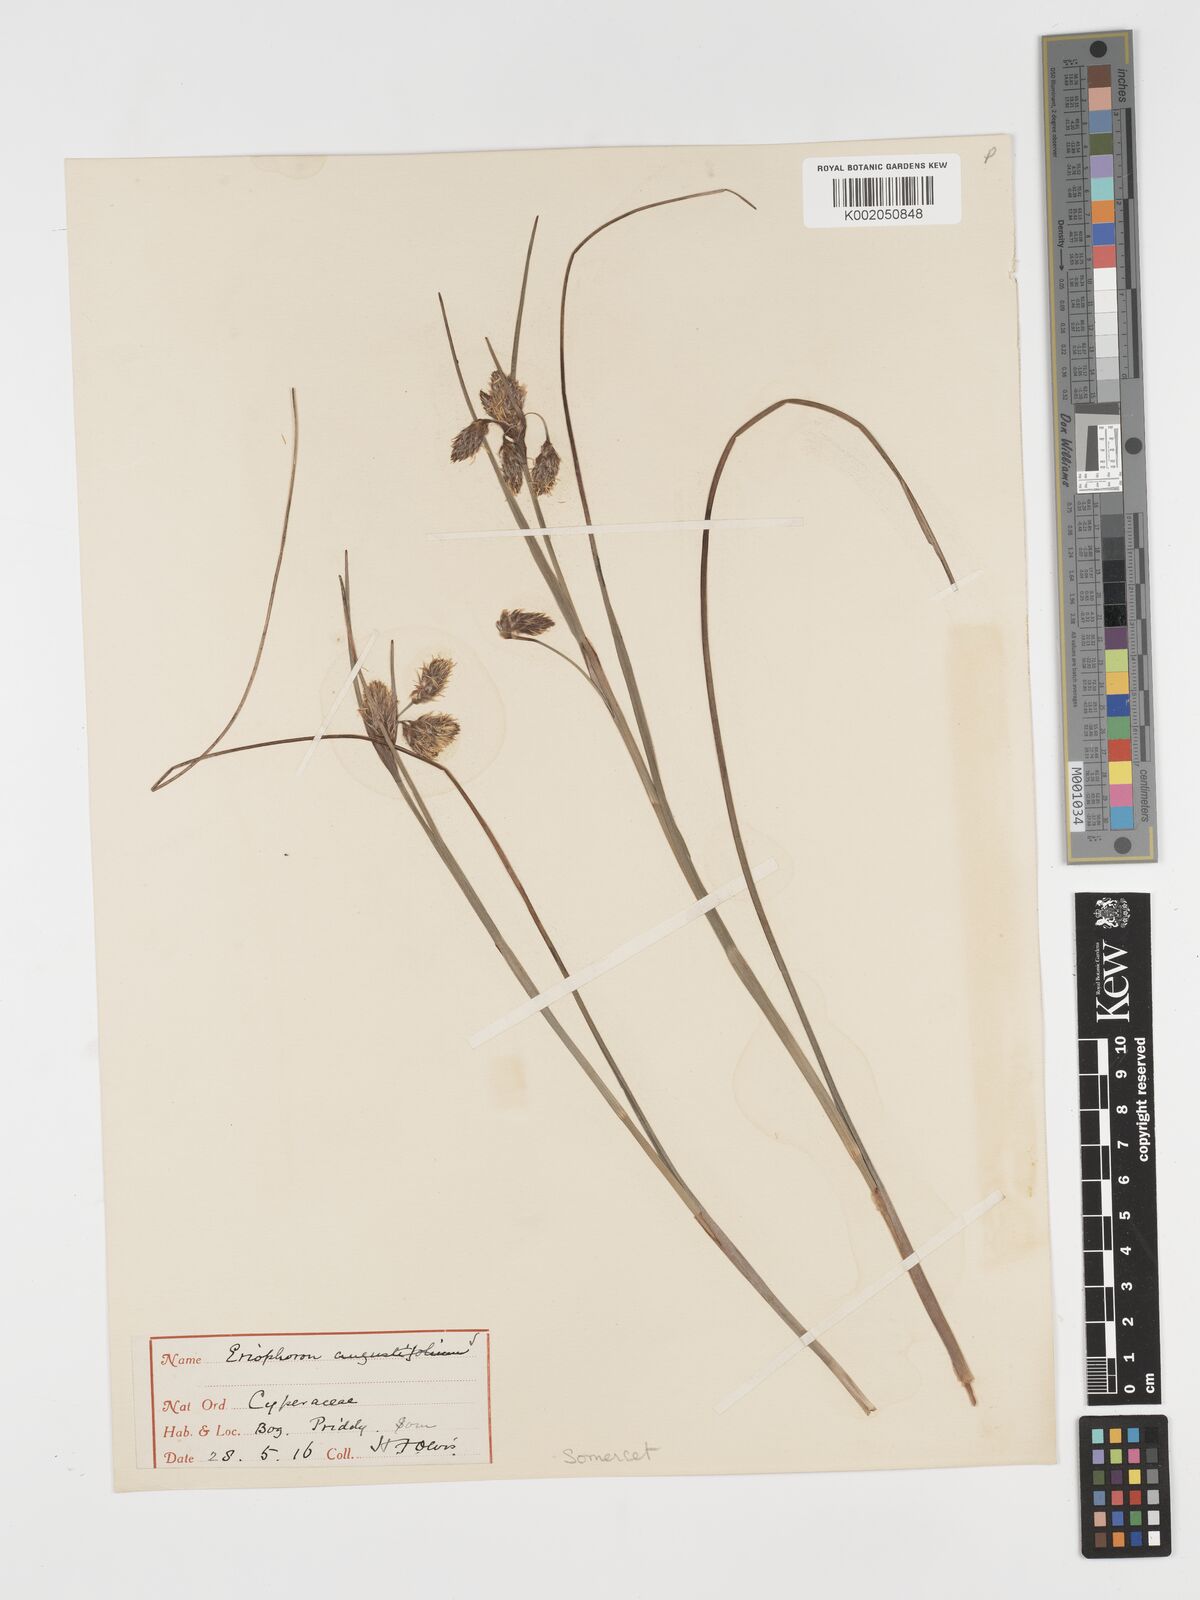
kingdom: Plantae
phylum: Tracheophyta
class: Liliopsida
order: Poales
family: Cyperaceae
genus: Eriophorum
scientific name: Eriophorum angustifolium
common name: Common cottongrass
